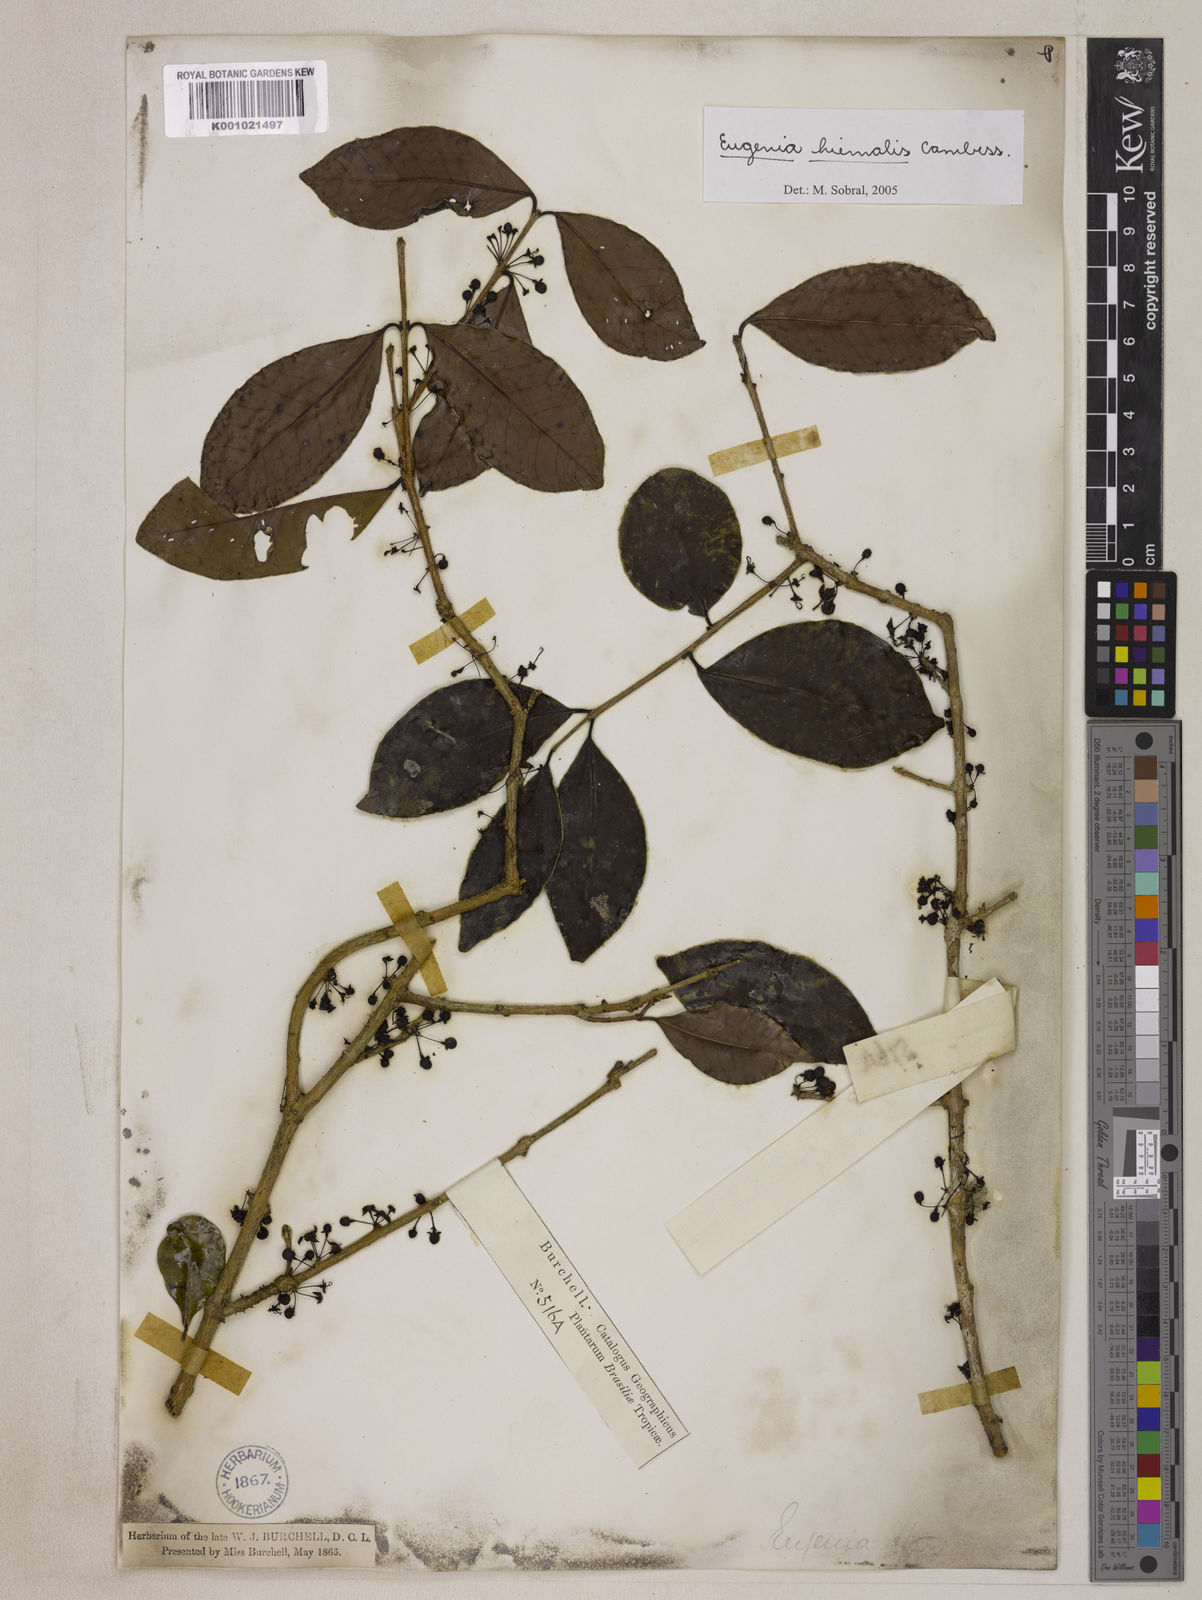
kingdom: Plantae
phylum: Tracheophyta
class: Magnoliopsida
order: Myrtales
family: Myrtaceae
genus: Eugenia
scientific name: Eugenia hiemalis
